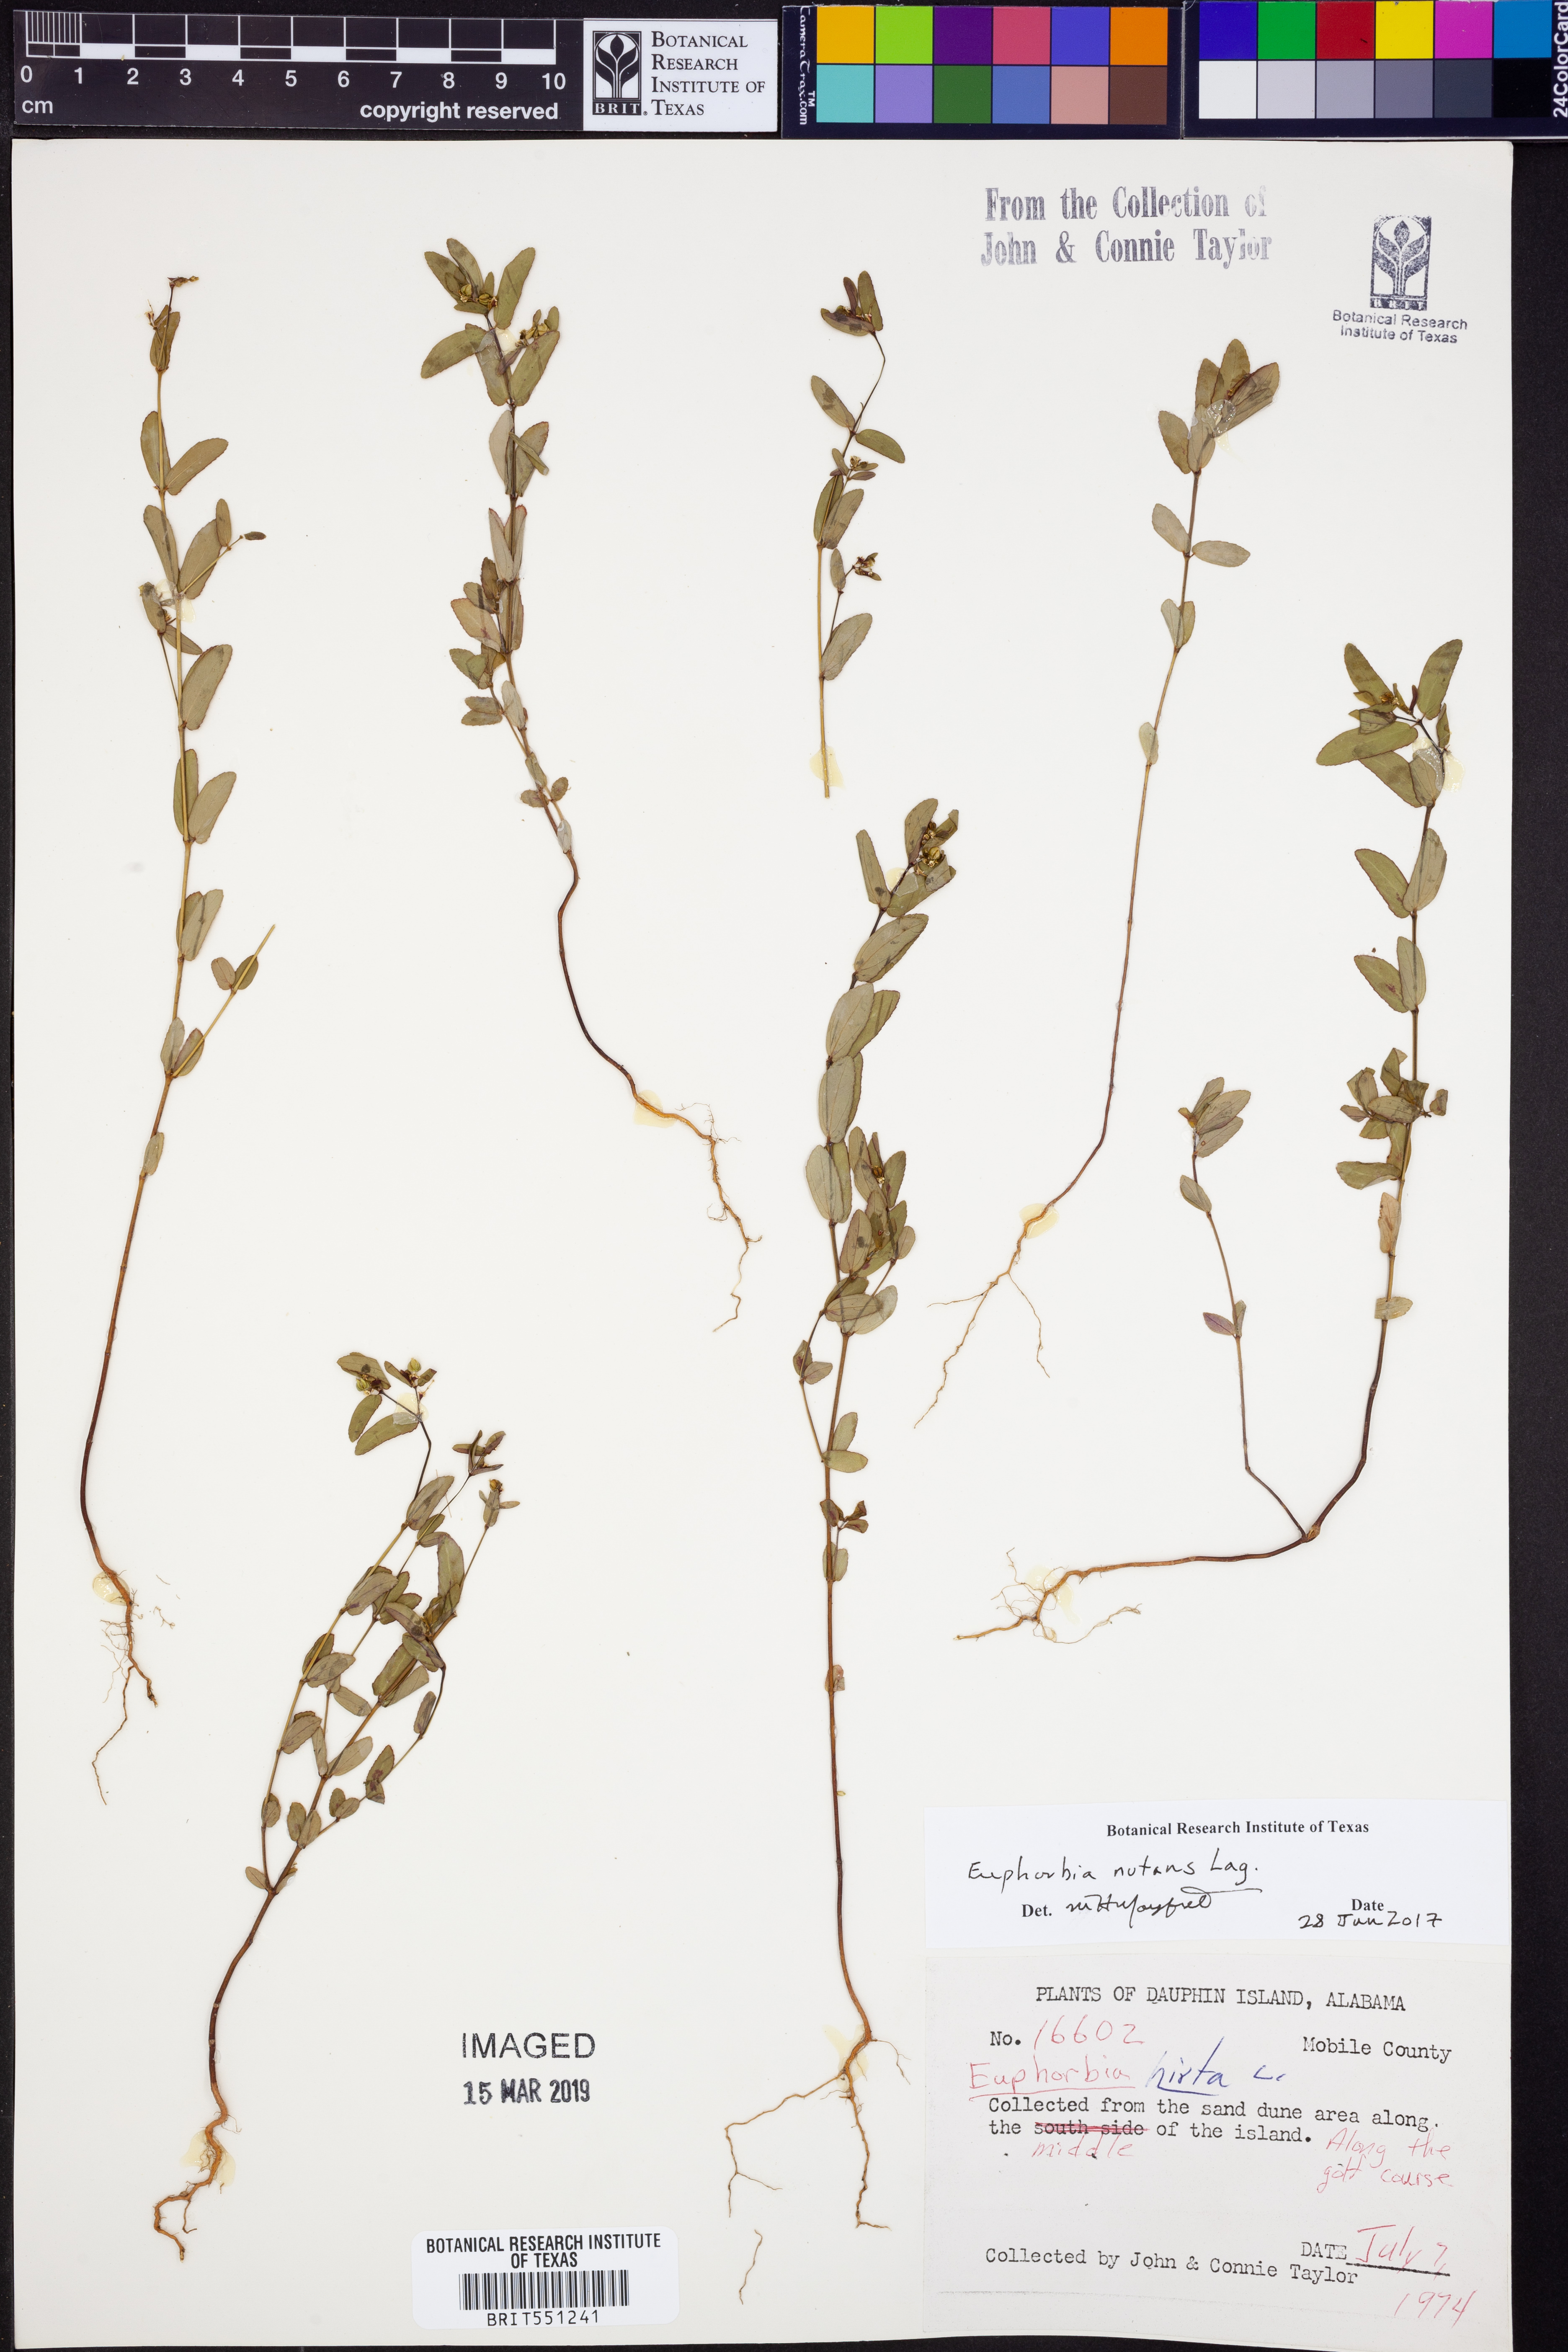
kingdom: Plantae
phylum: Tracheophyta
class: Magnoliopsida
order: Malpighiales
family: Euphorbiaceae
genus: Euphorbia
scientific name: Euphorbia nutans
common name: Eyebane
